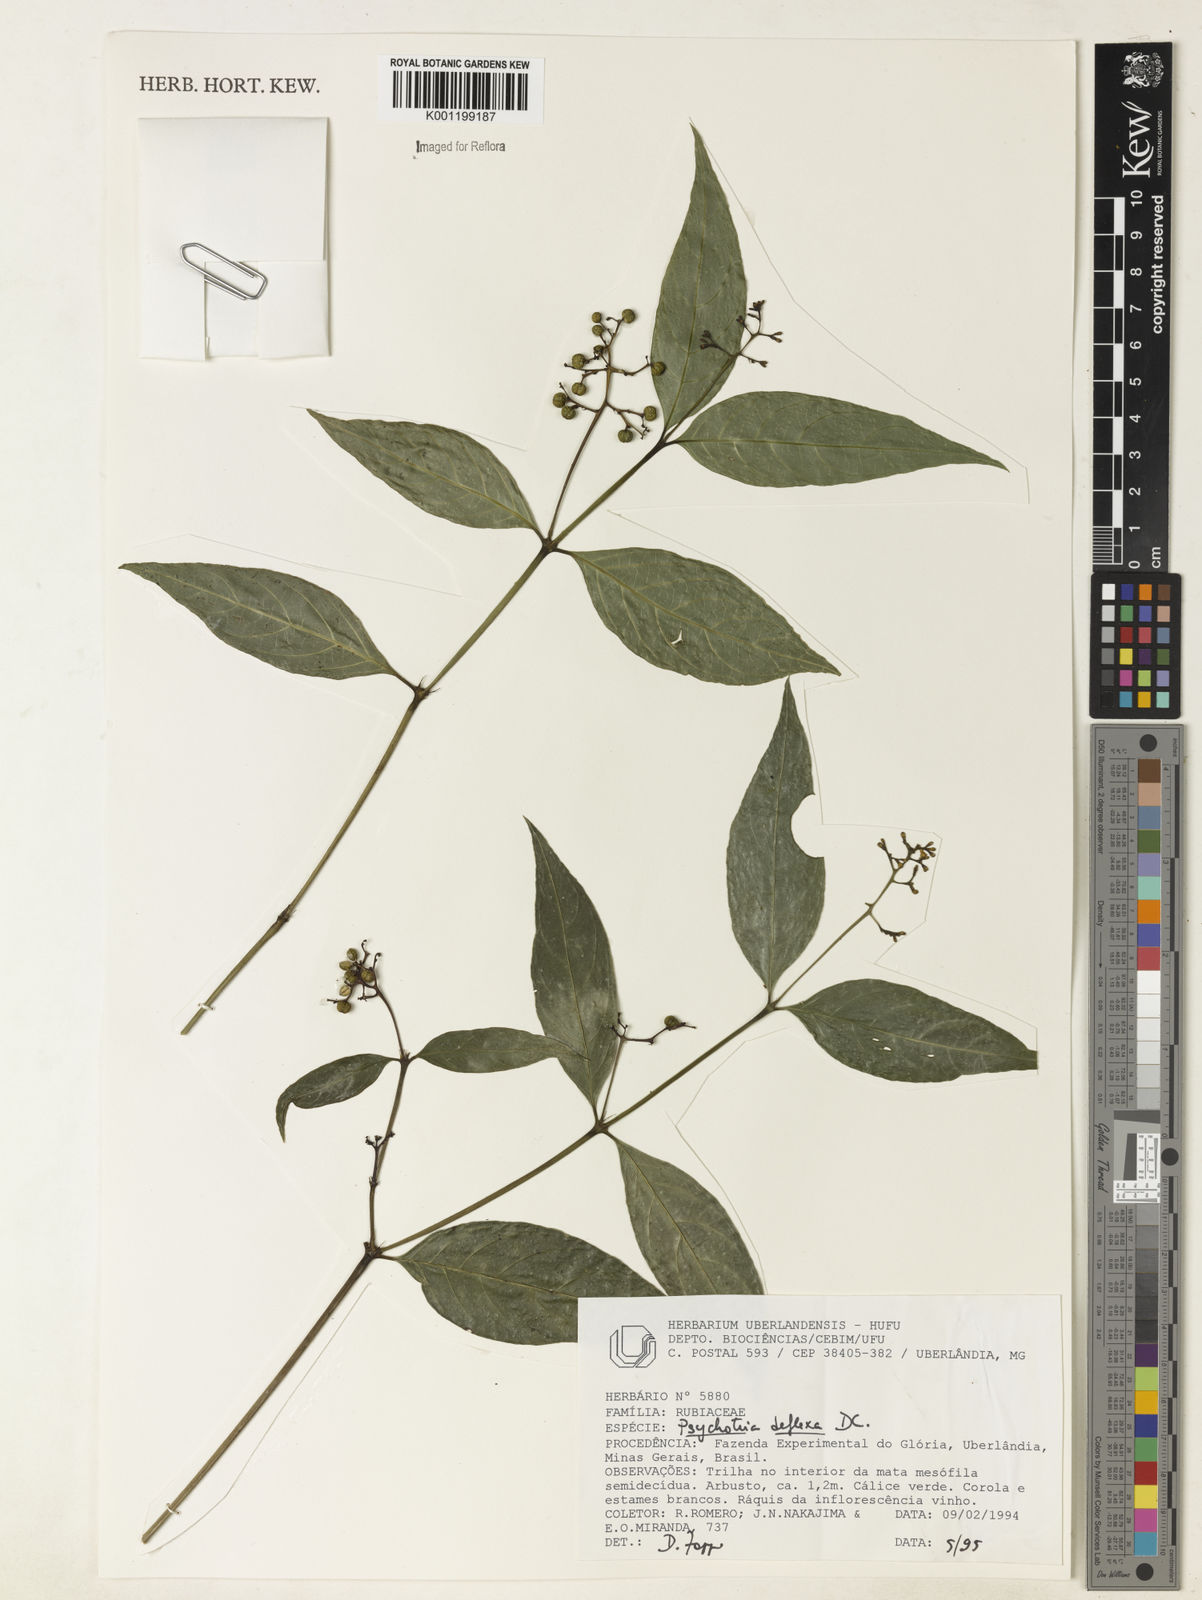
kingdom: Plantae
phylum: Tracheophyta
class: Magnoliopsida
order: Gentianales
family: Rubiaceae
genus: Palicourea
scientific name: Palicourea deflexa
